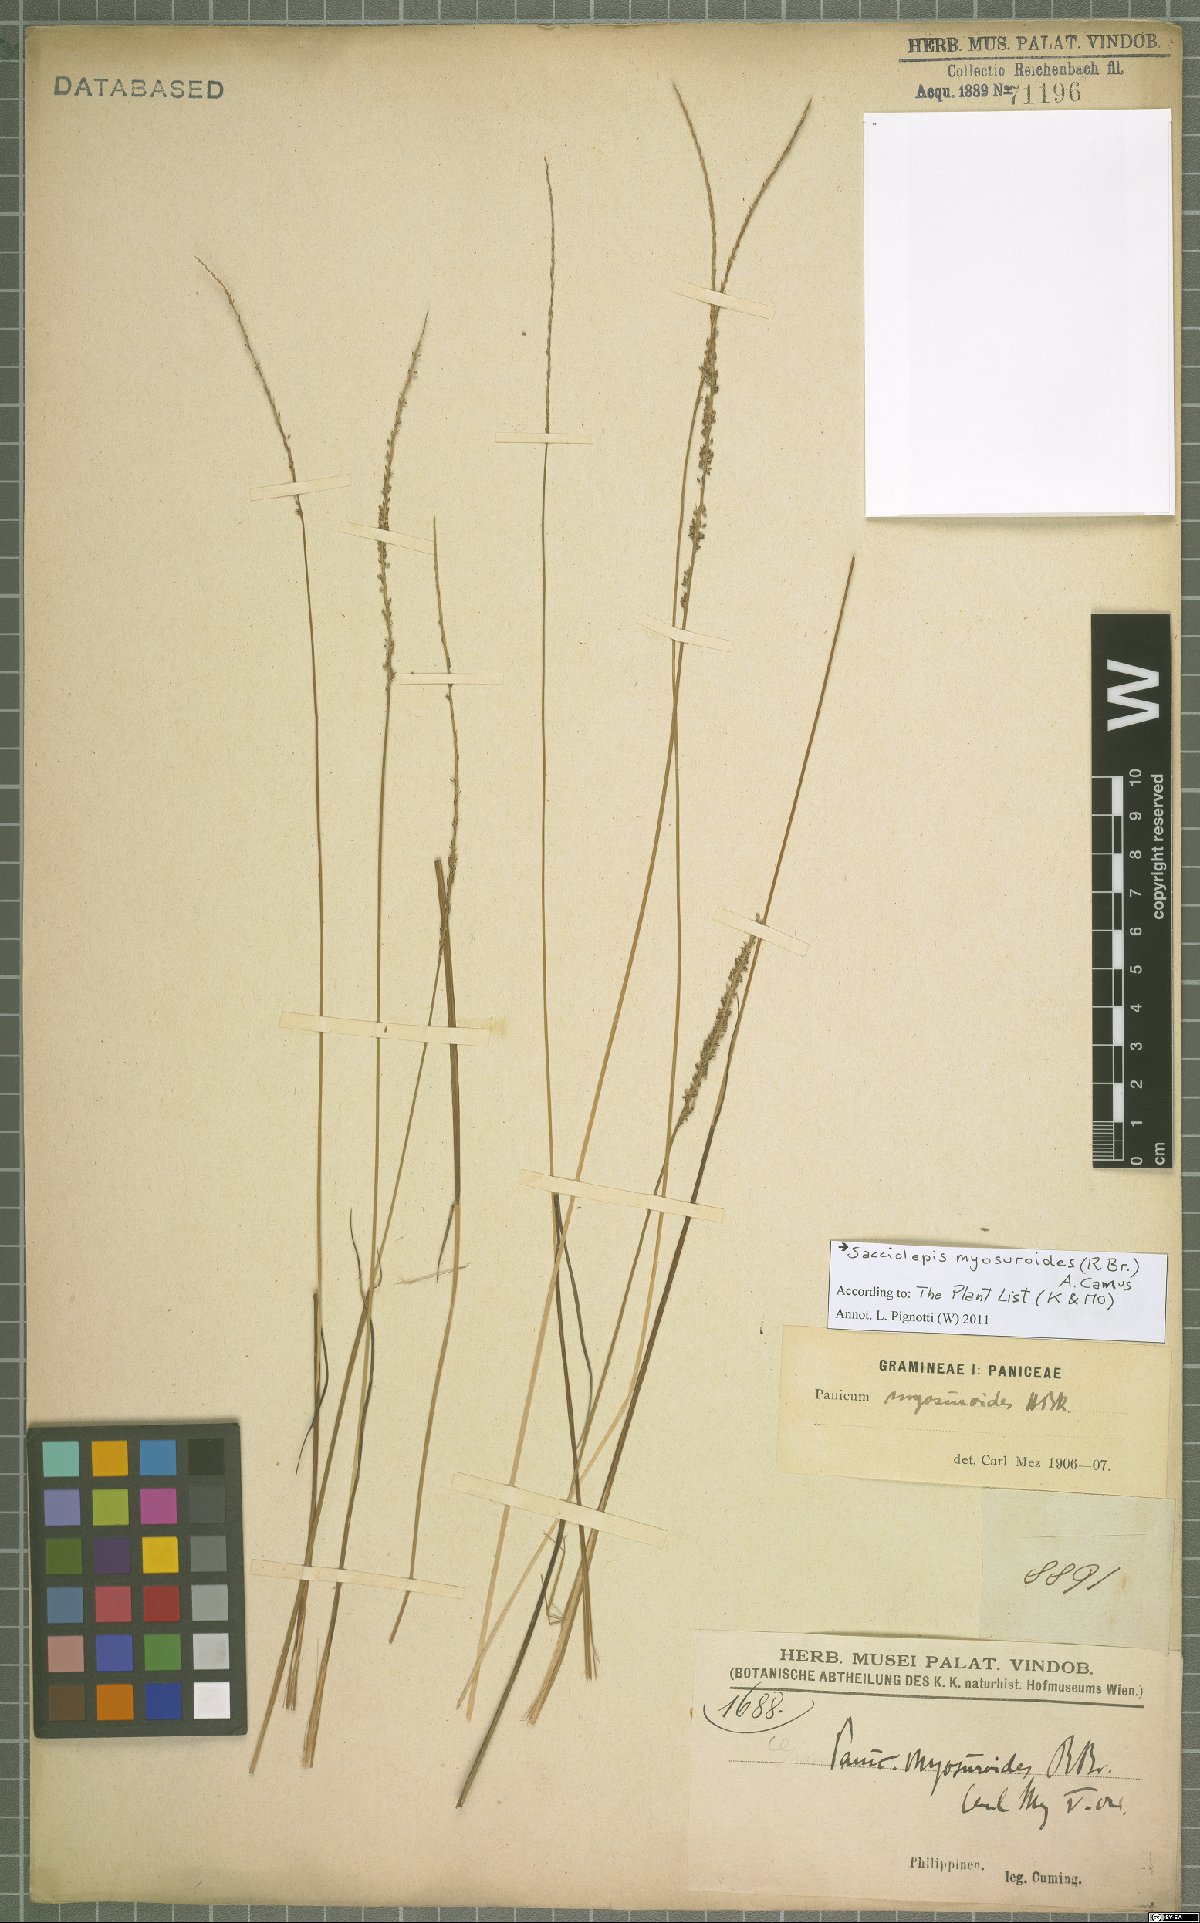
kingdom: Plantae
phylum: Tracheophyta
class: Liliopsida
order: Poales
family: Poaceae
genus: Sacciolepis
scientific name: Sacciolepis myosuroides
